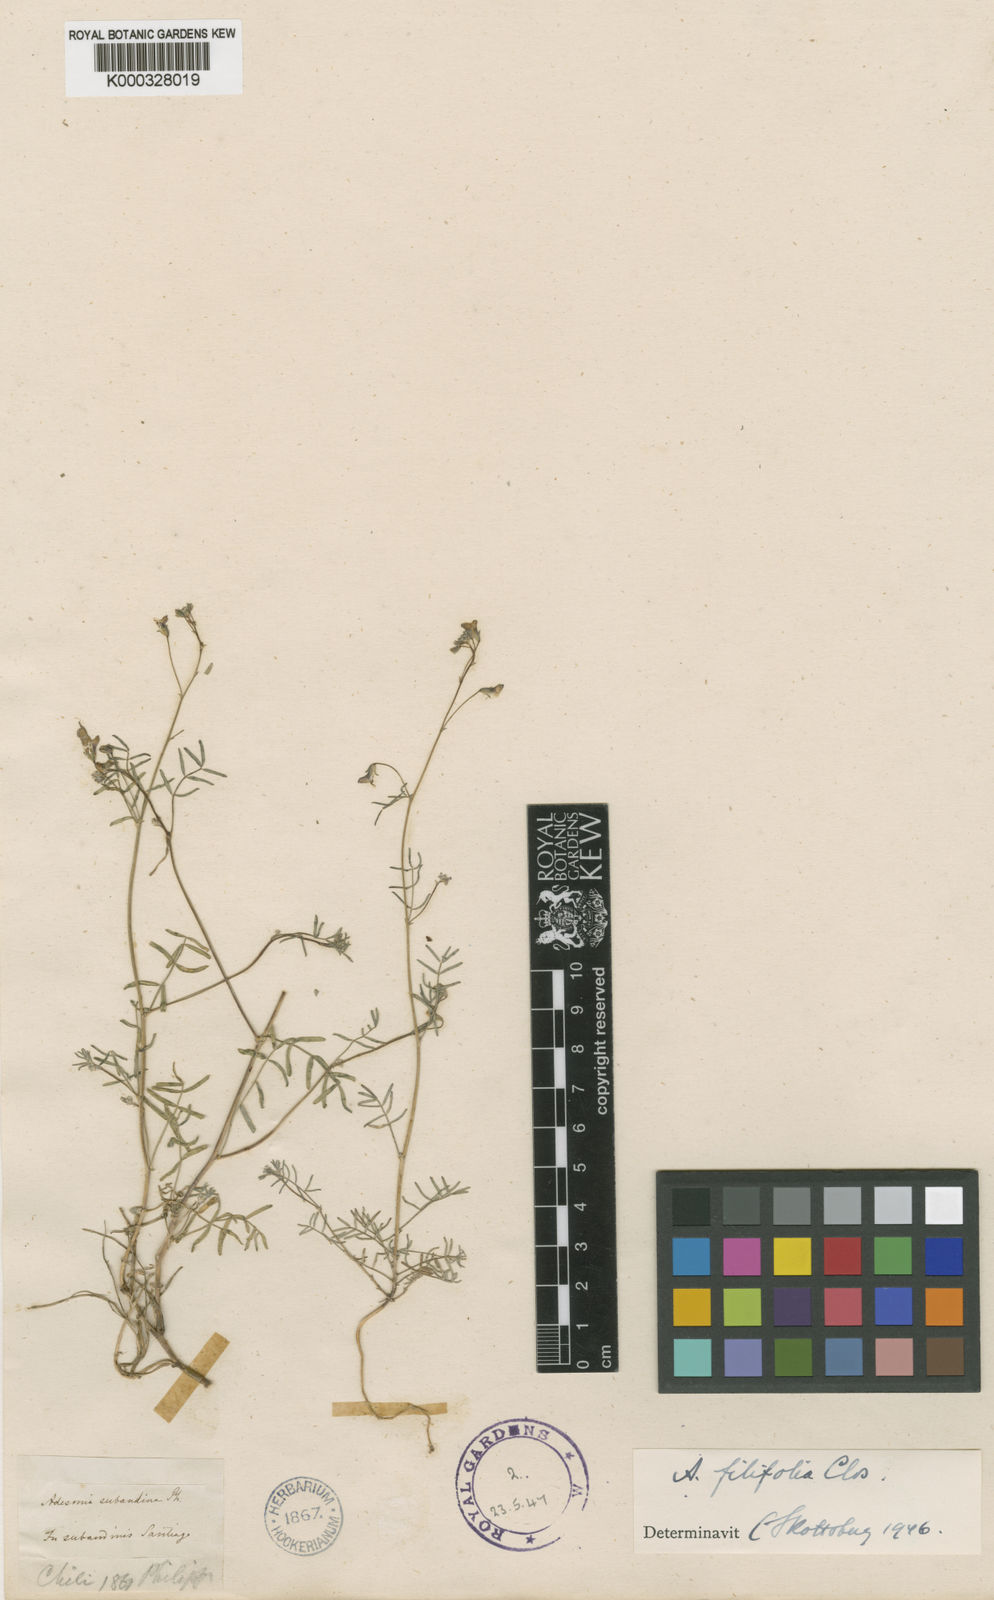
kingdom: Plantae
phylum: Tracheophyta
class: Magnoliopsida
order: Fabales
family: Fabaceae
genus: Adesmia
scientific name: Adesmia filifolia
